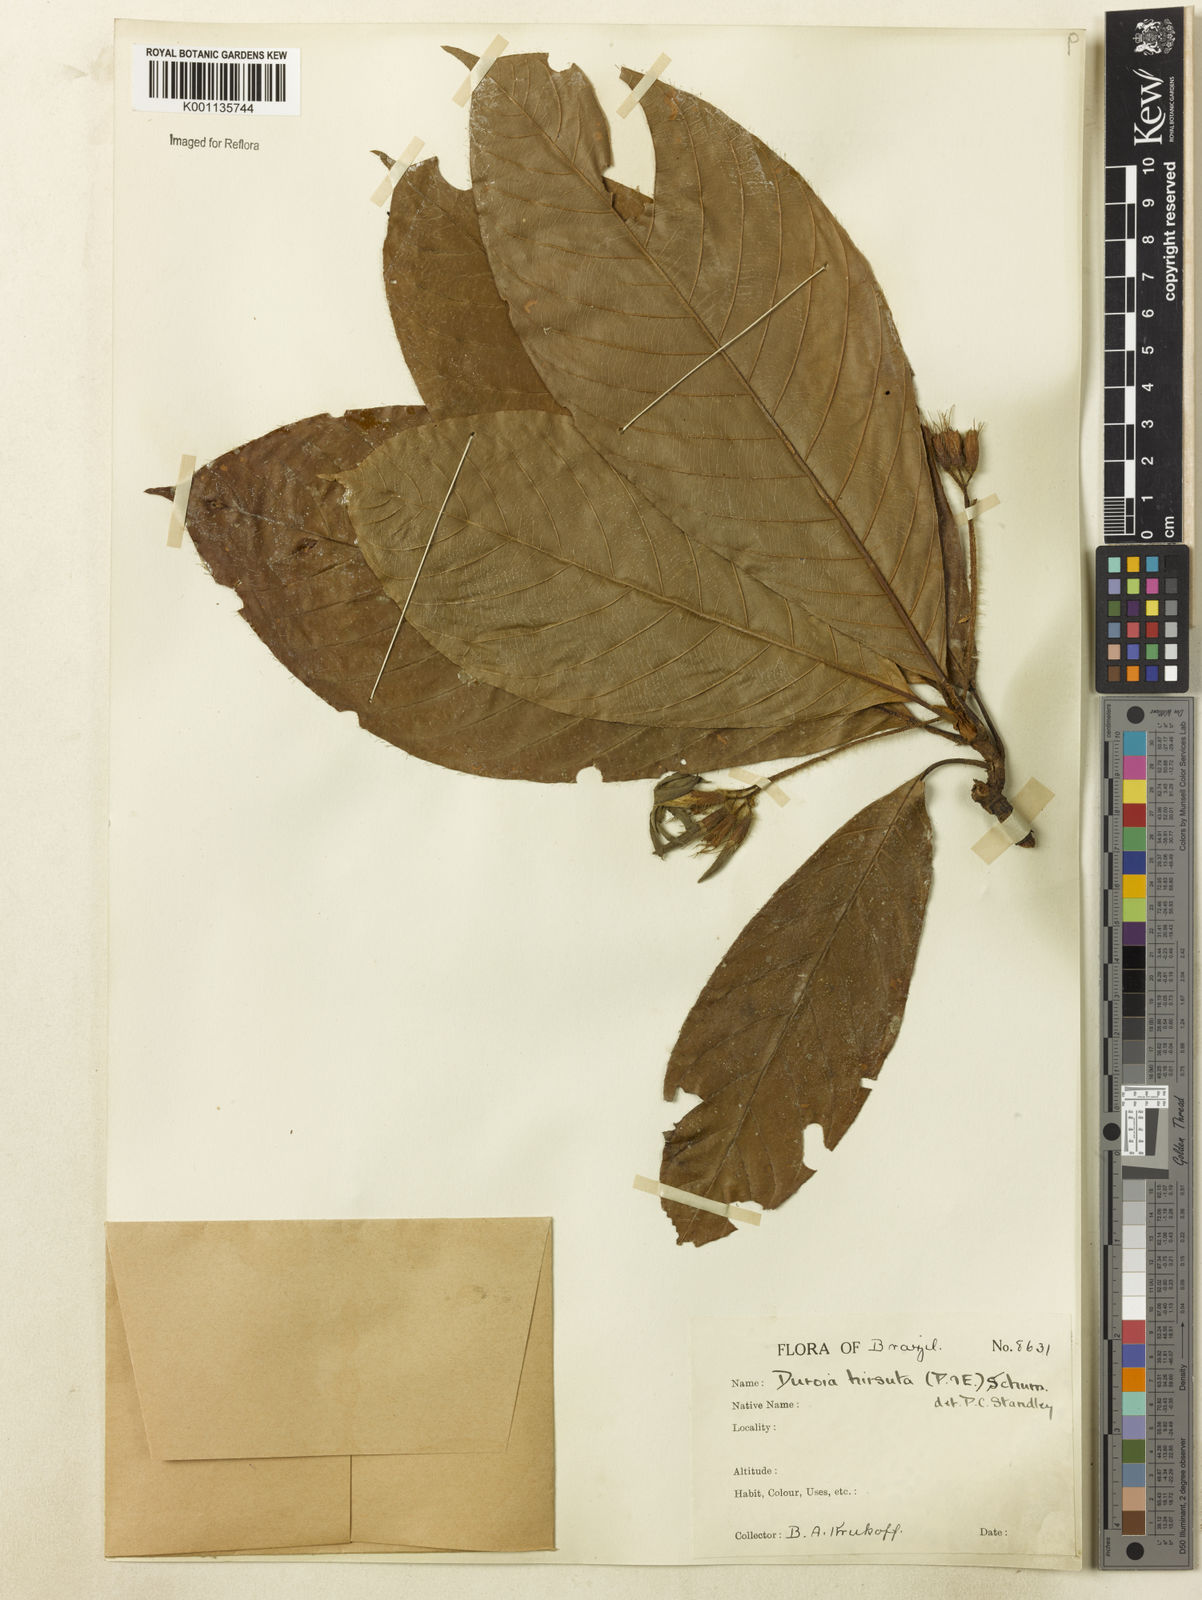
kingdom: Plantae
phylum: Tracheophyta
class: Magnoliopsida
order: Gentianales
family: Rubiaceae
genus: Duroia
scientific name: Duroia hirsuta
